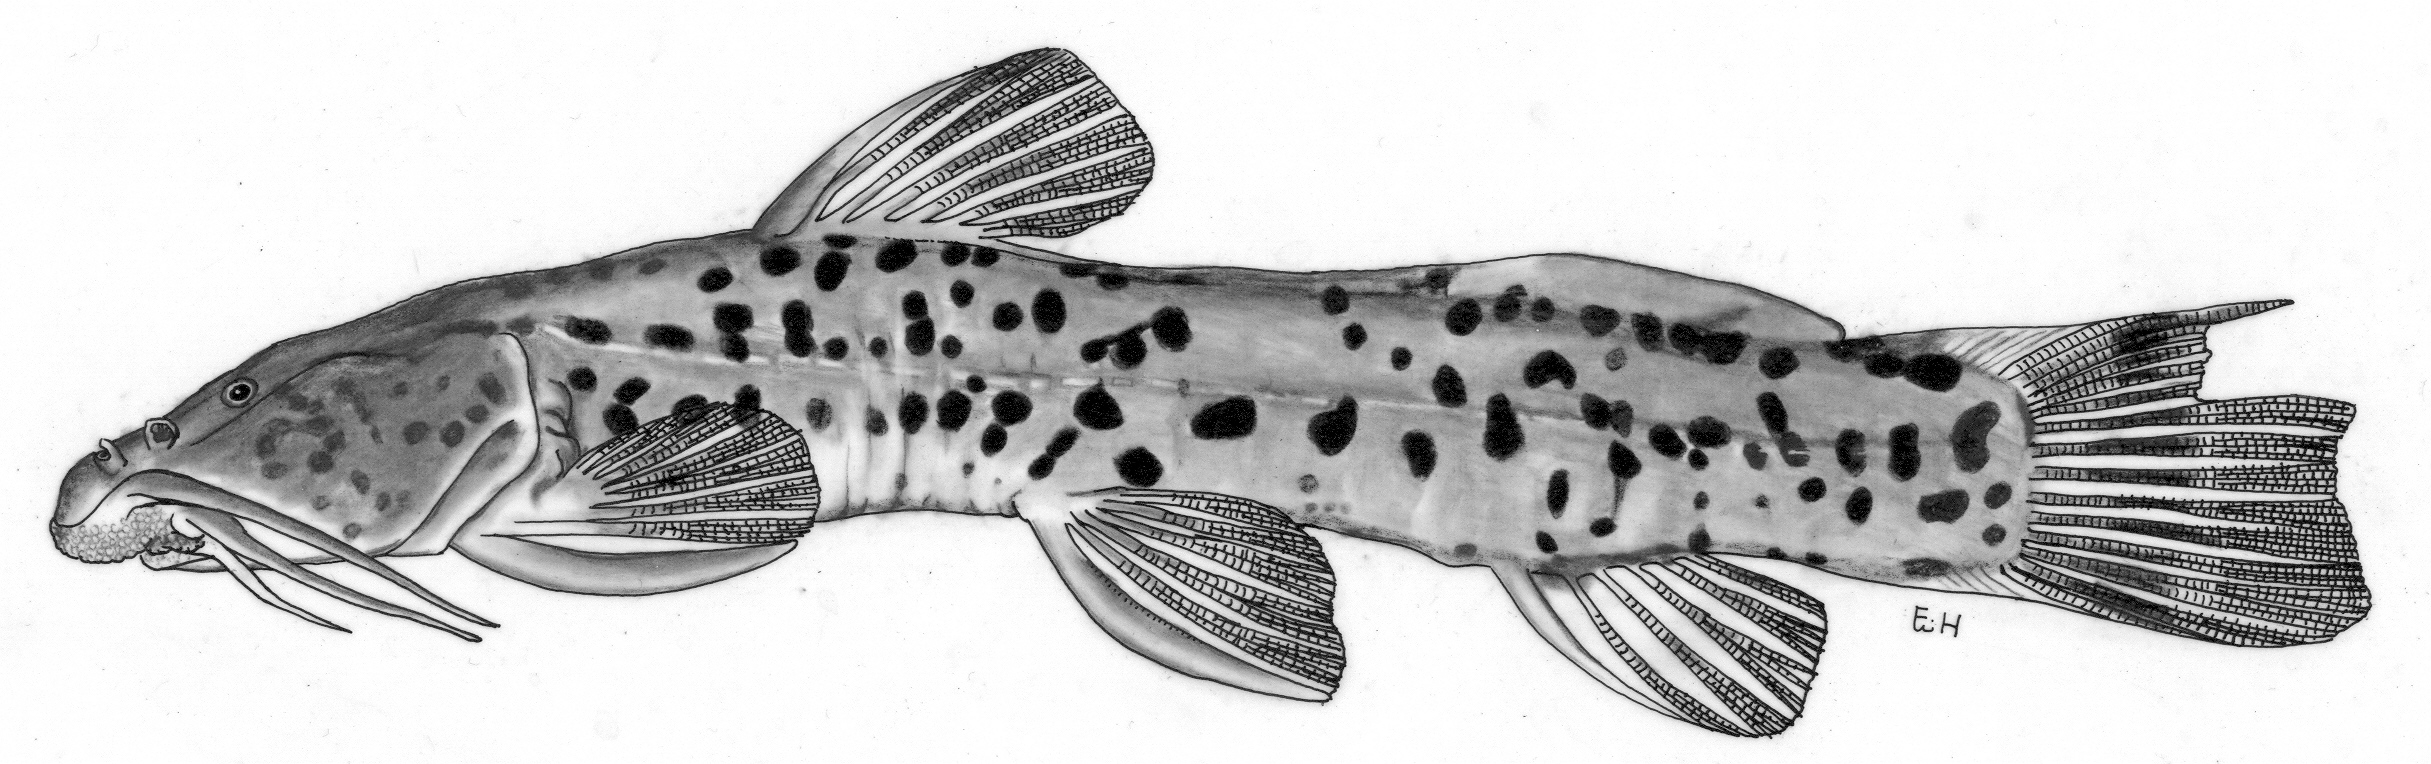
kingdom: Animalia
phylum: Chordata
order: Siluriformes
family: Amphiliidae
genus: Amphilius
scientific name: Amphilius mamonekenensis
